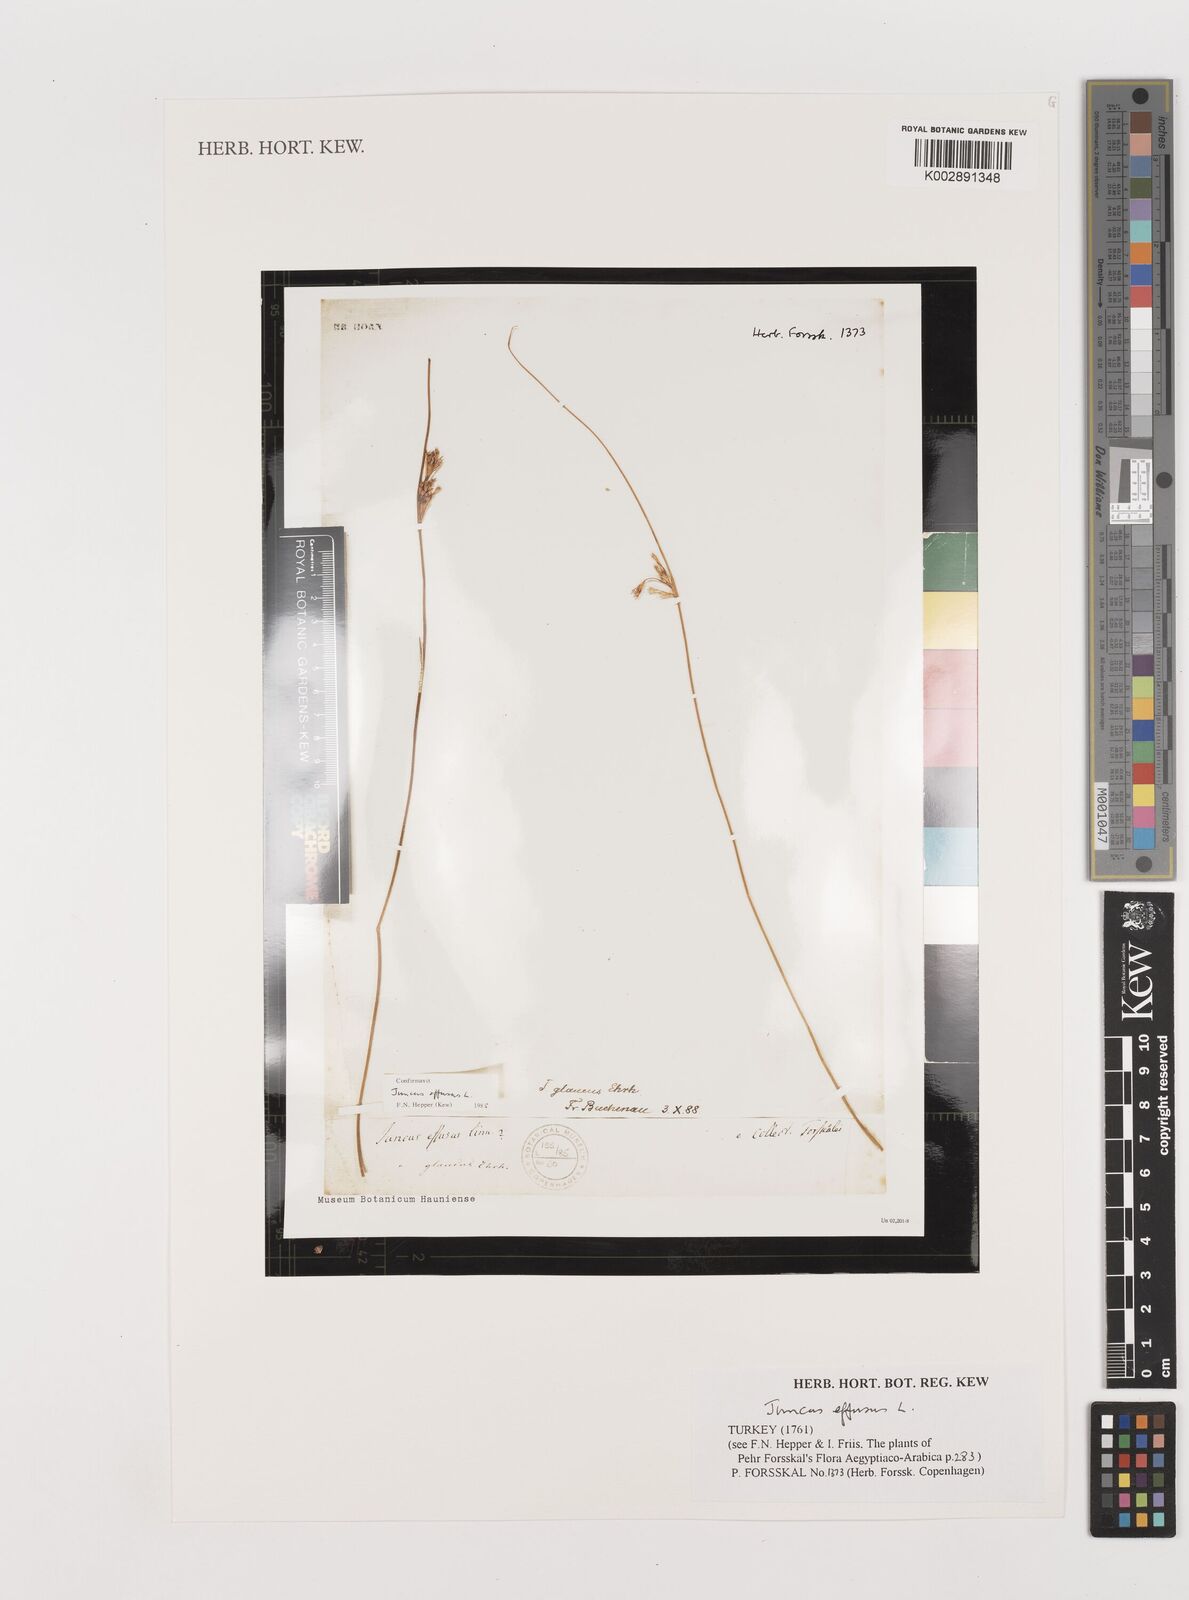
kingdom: Plantae
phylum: Tracheophyta
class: Liliopsida
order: Poales
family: Juncaceae
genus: Juncus
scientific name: Juncus effusus
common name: Soft rush
